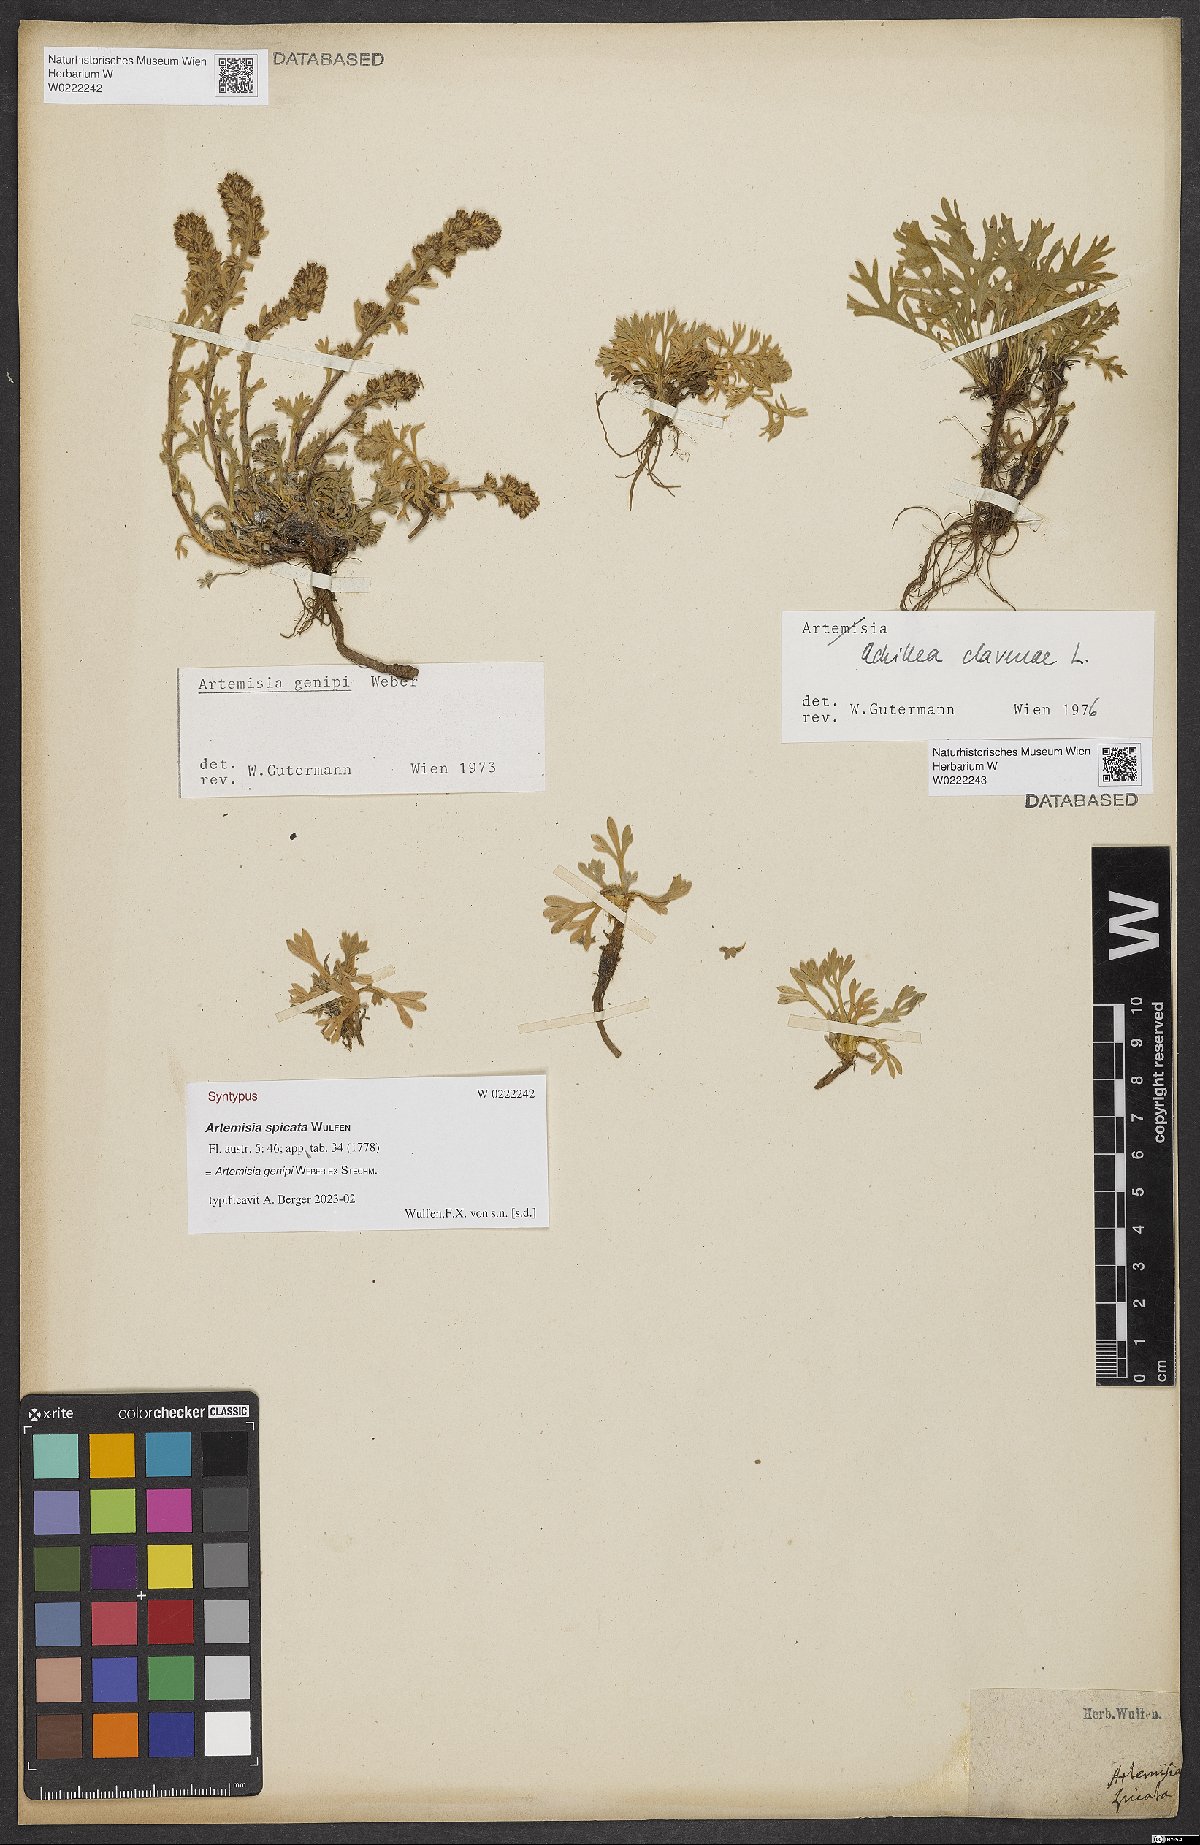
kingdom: Plantae
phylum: Tracheophyta
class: Magnoliopsida
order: Asterales
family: Asteraceae
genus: Artemisia
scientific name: Artemisia genipi
